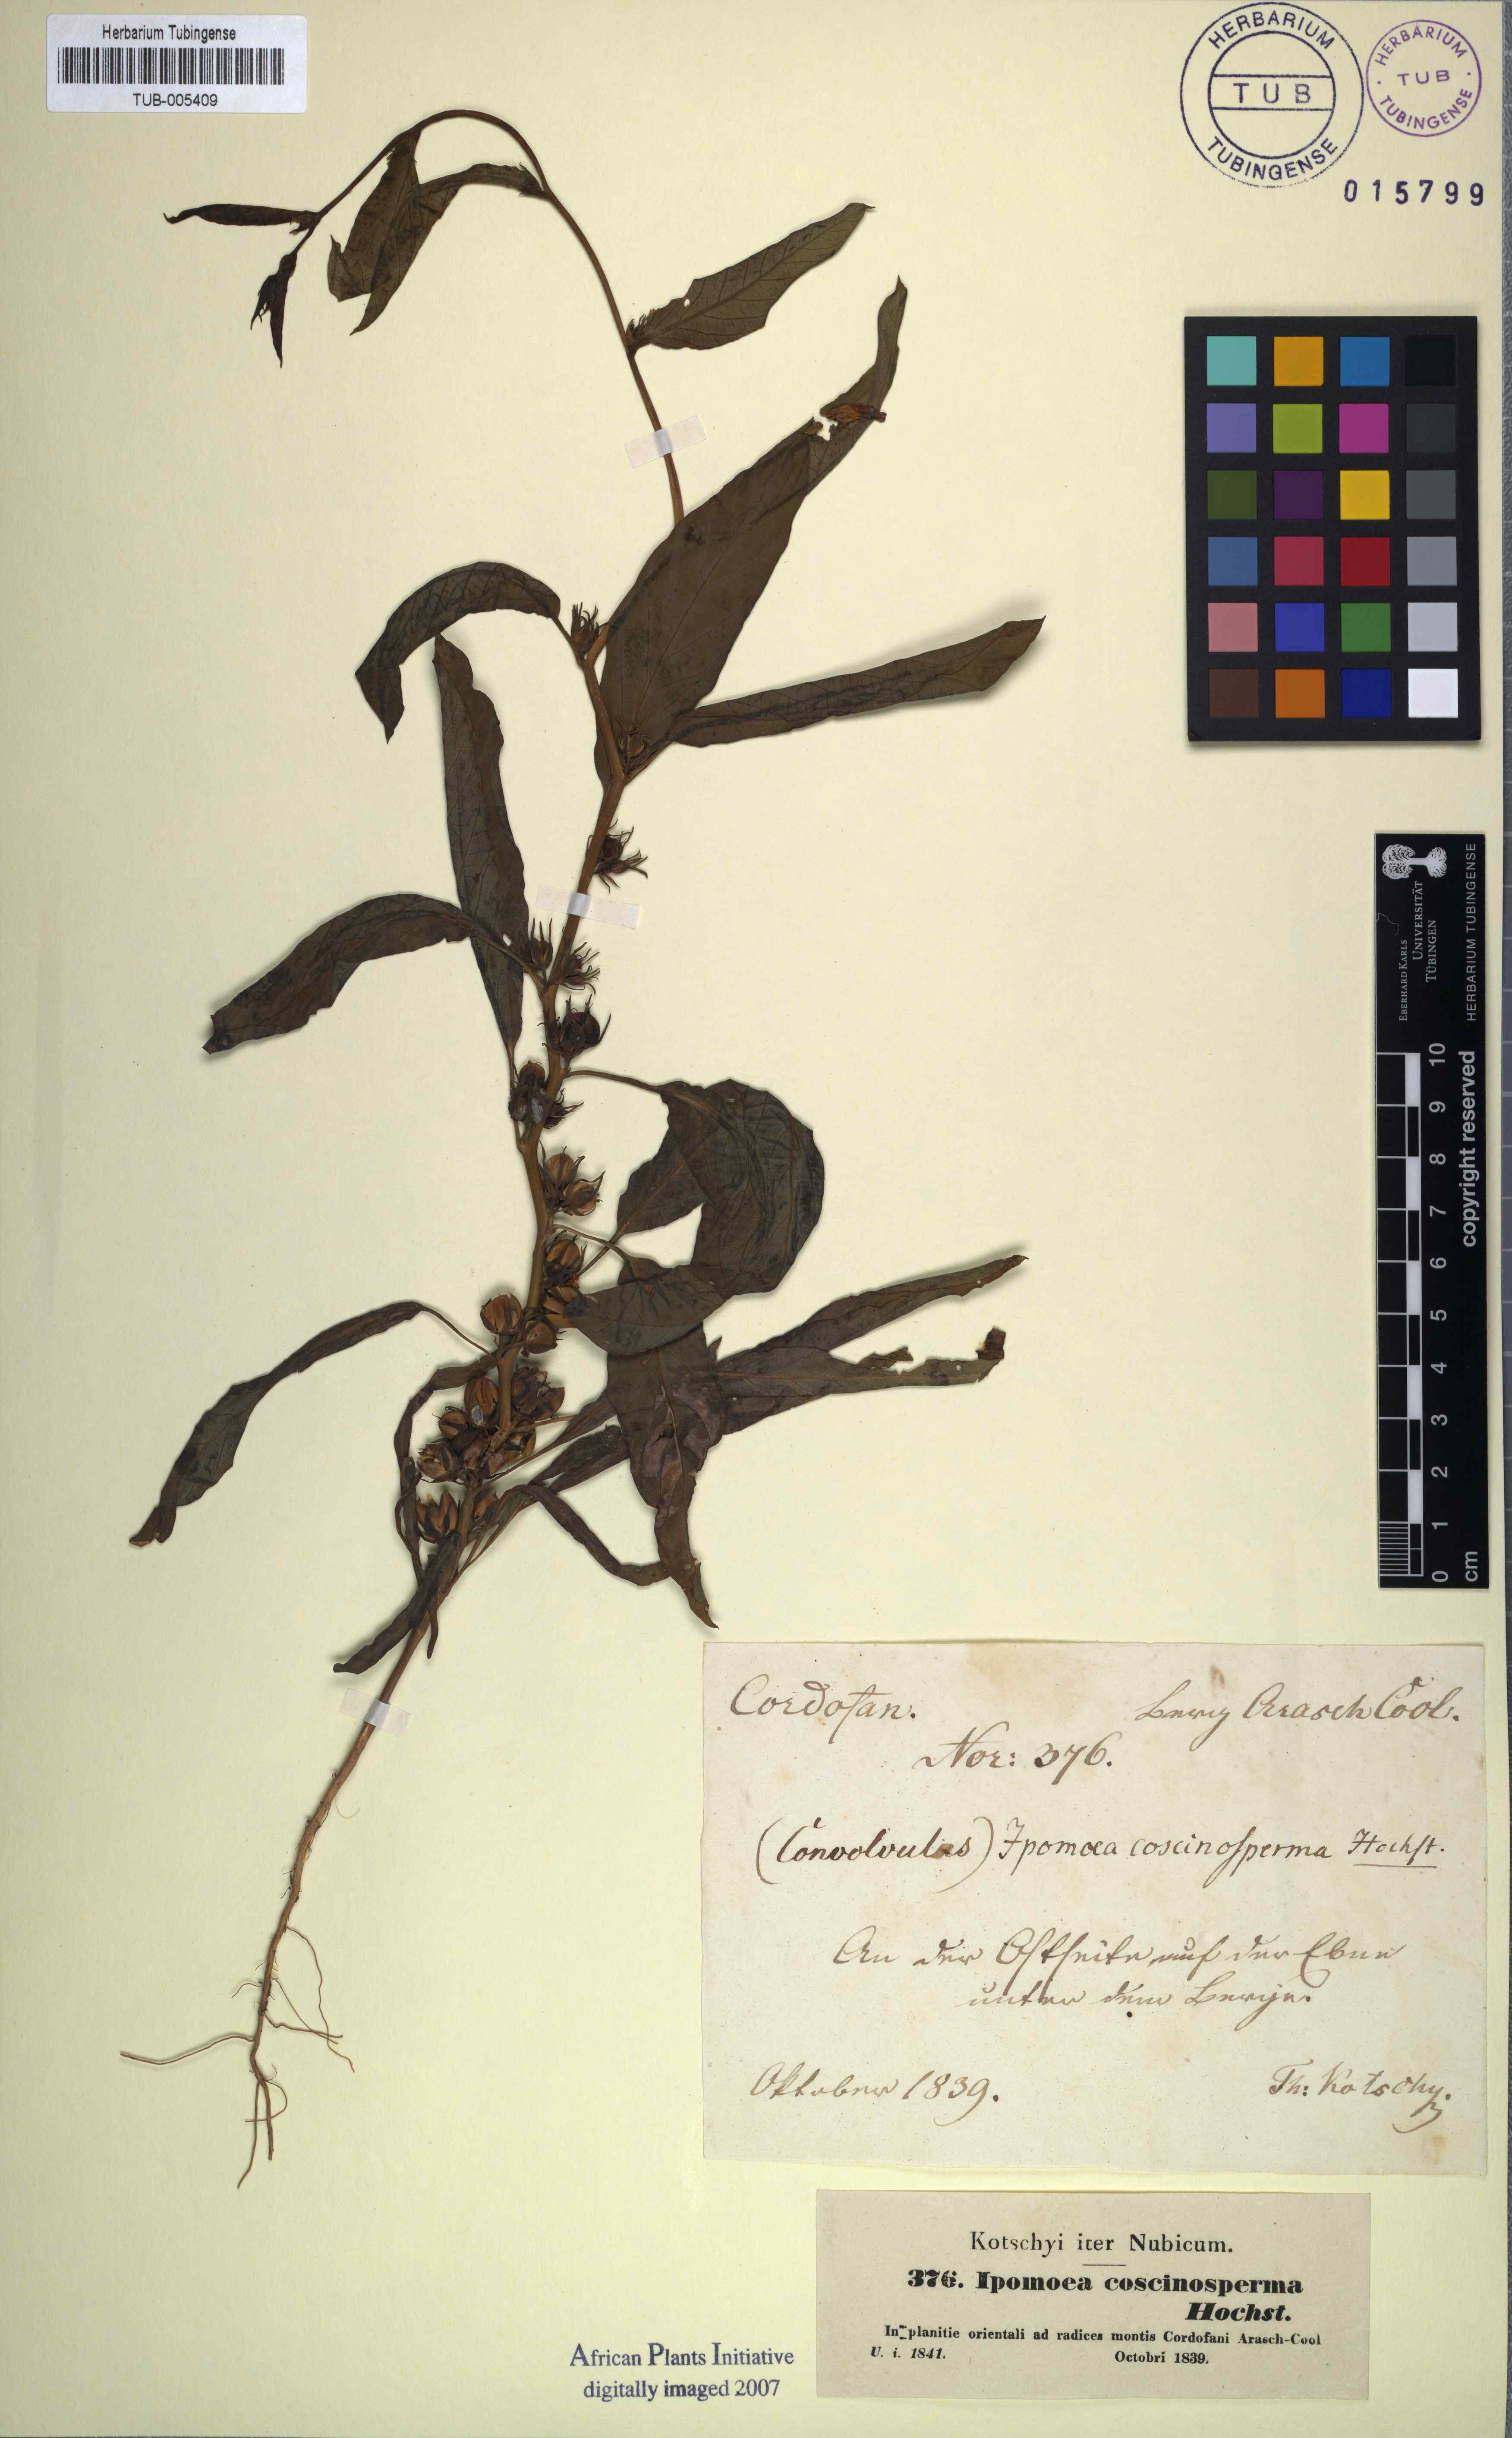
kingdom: Plantae
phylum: Tracheophyta
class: Magnoliopsida
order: Solanales
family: Convolvulaceae
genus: Ipomoea
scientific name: Ipomoea coscinosperma
